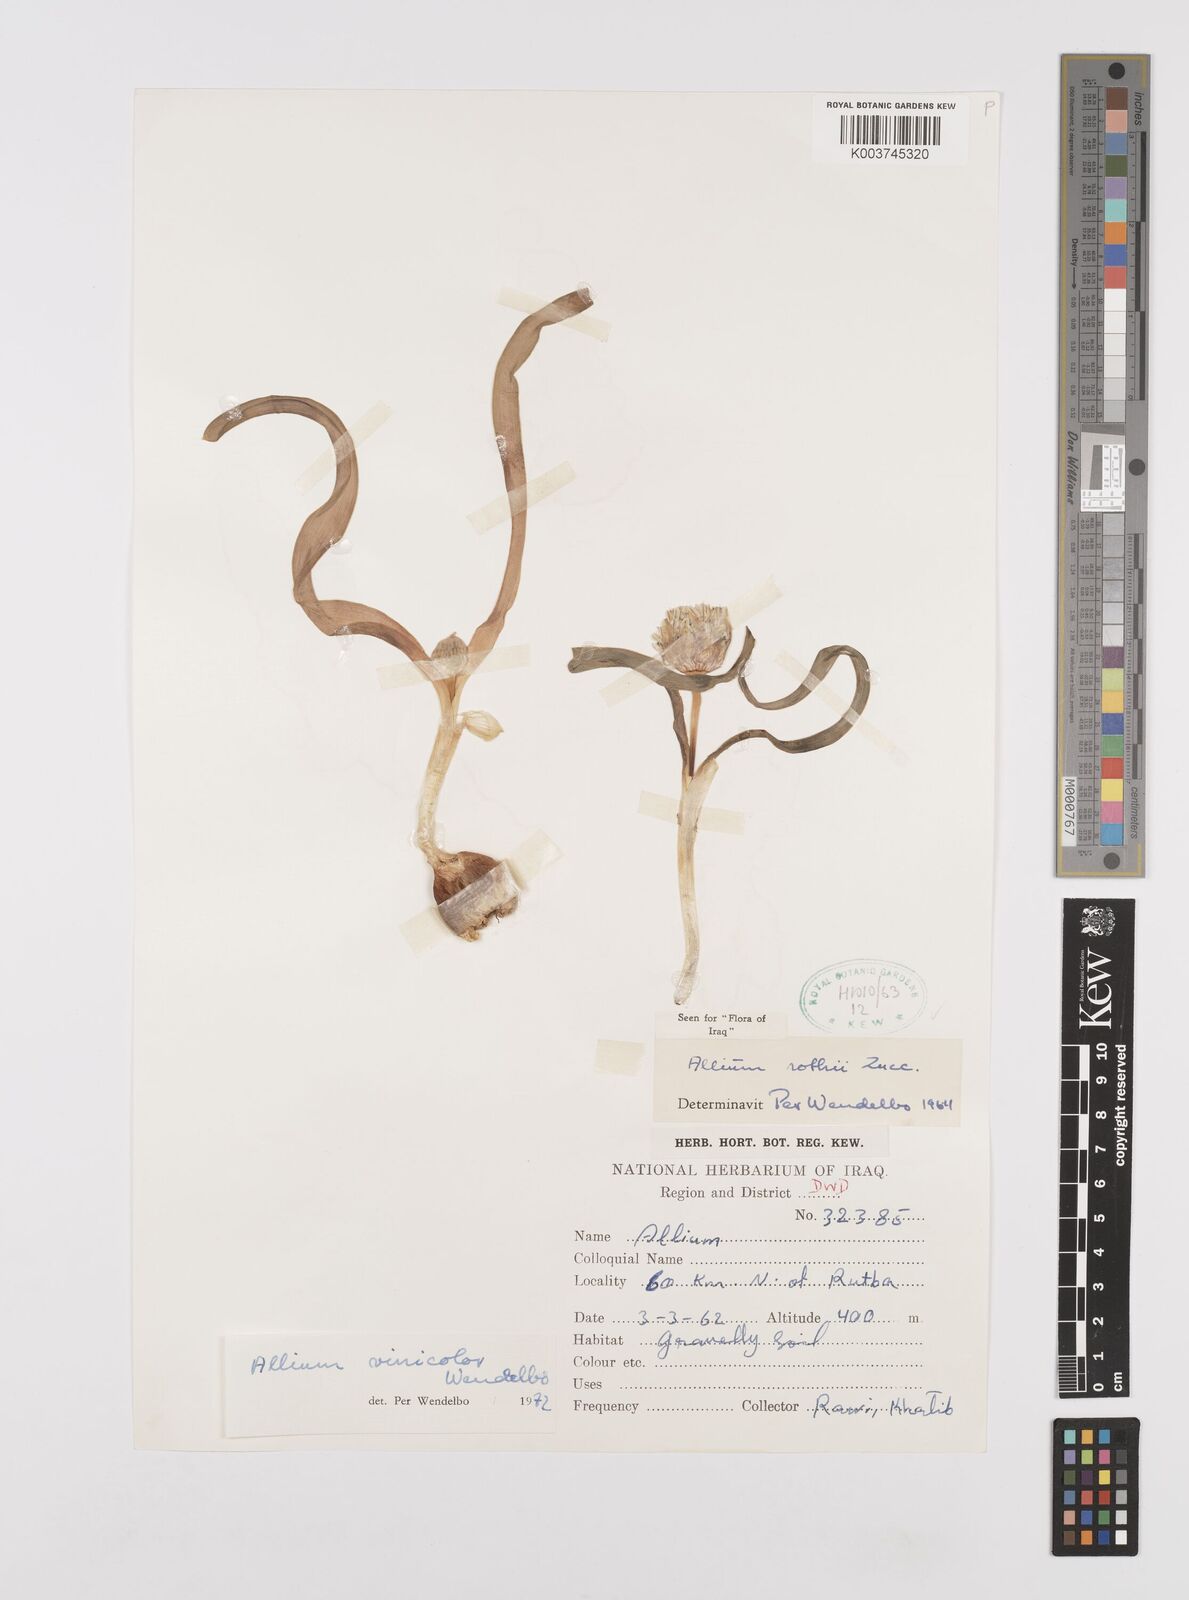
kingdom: Plantae
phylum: Tracheophyta
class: Liliopsida
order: Asparagales
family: Amaryllidaceae
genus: Allium
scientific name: Allium vinicolor
